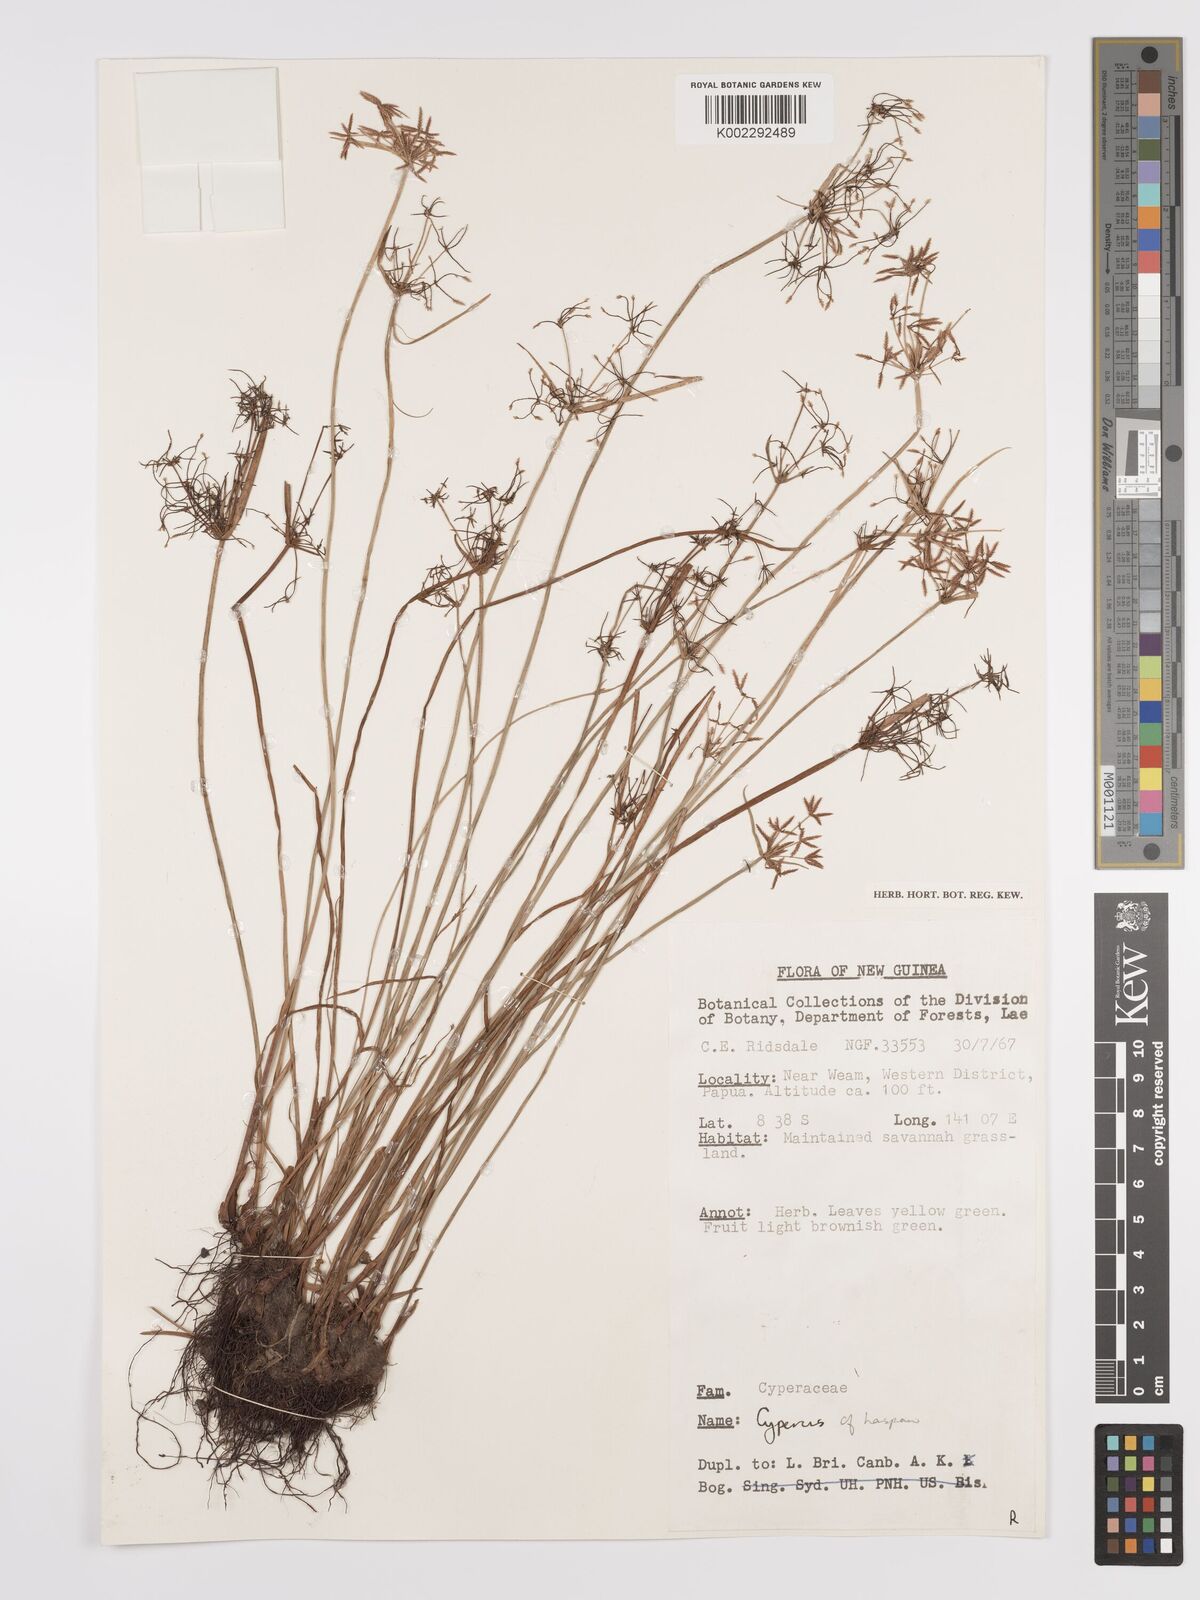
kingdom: Plantae
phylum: Tracheophyta
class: Liliopsida
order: Poales
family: Cyperaceae
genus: Cyperus
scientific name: Cyperus haspan
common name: Haspan flatsedge
